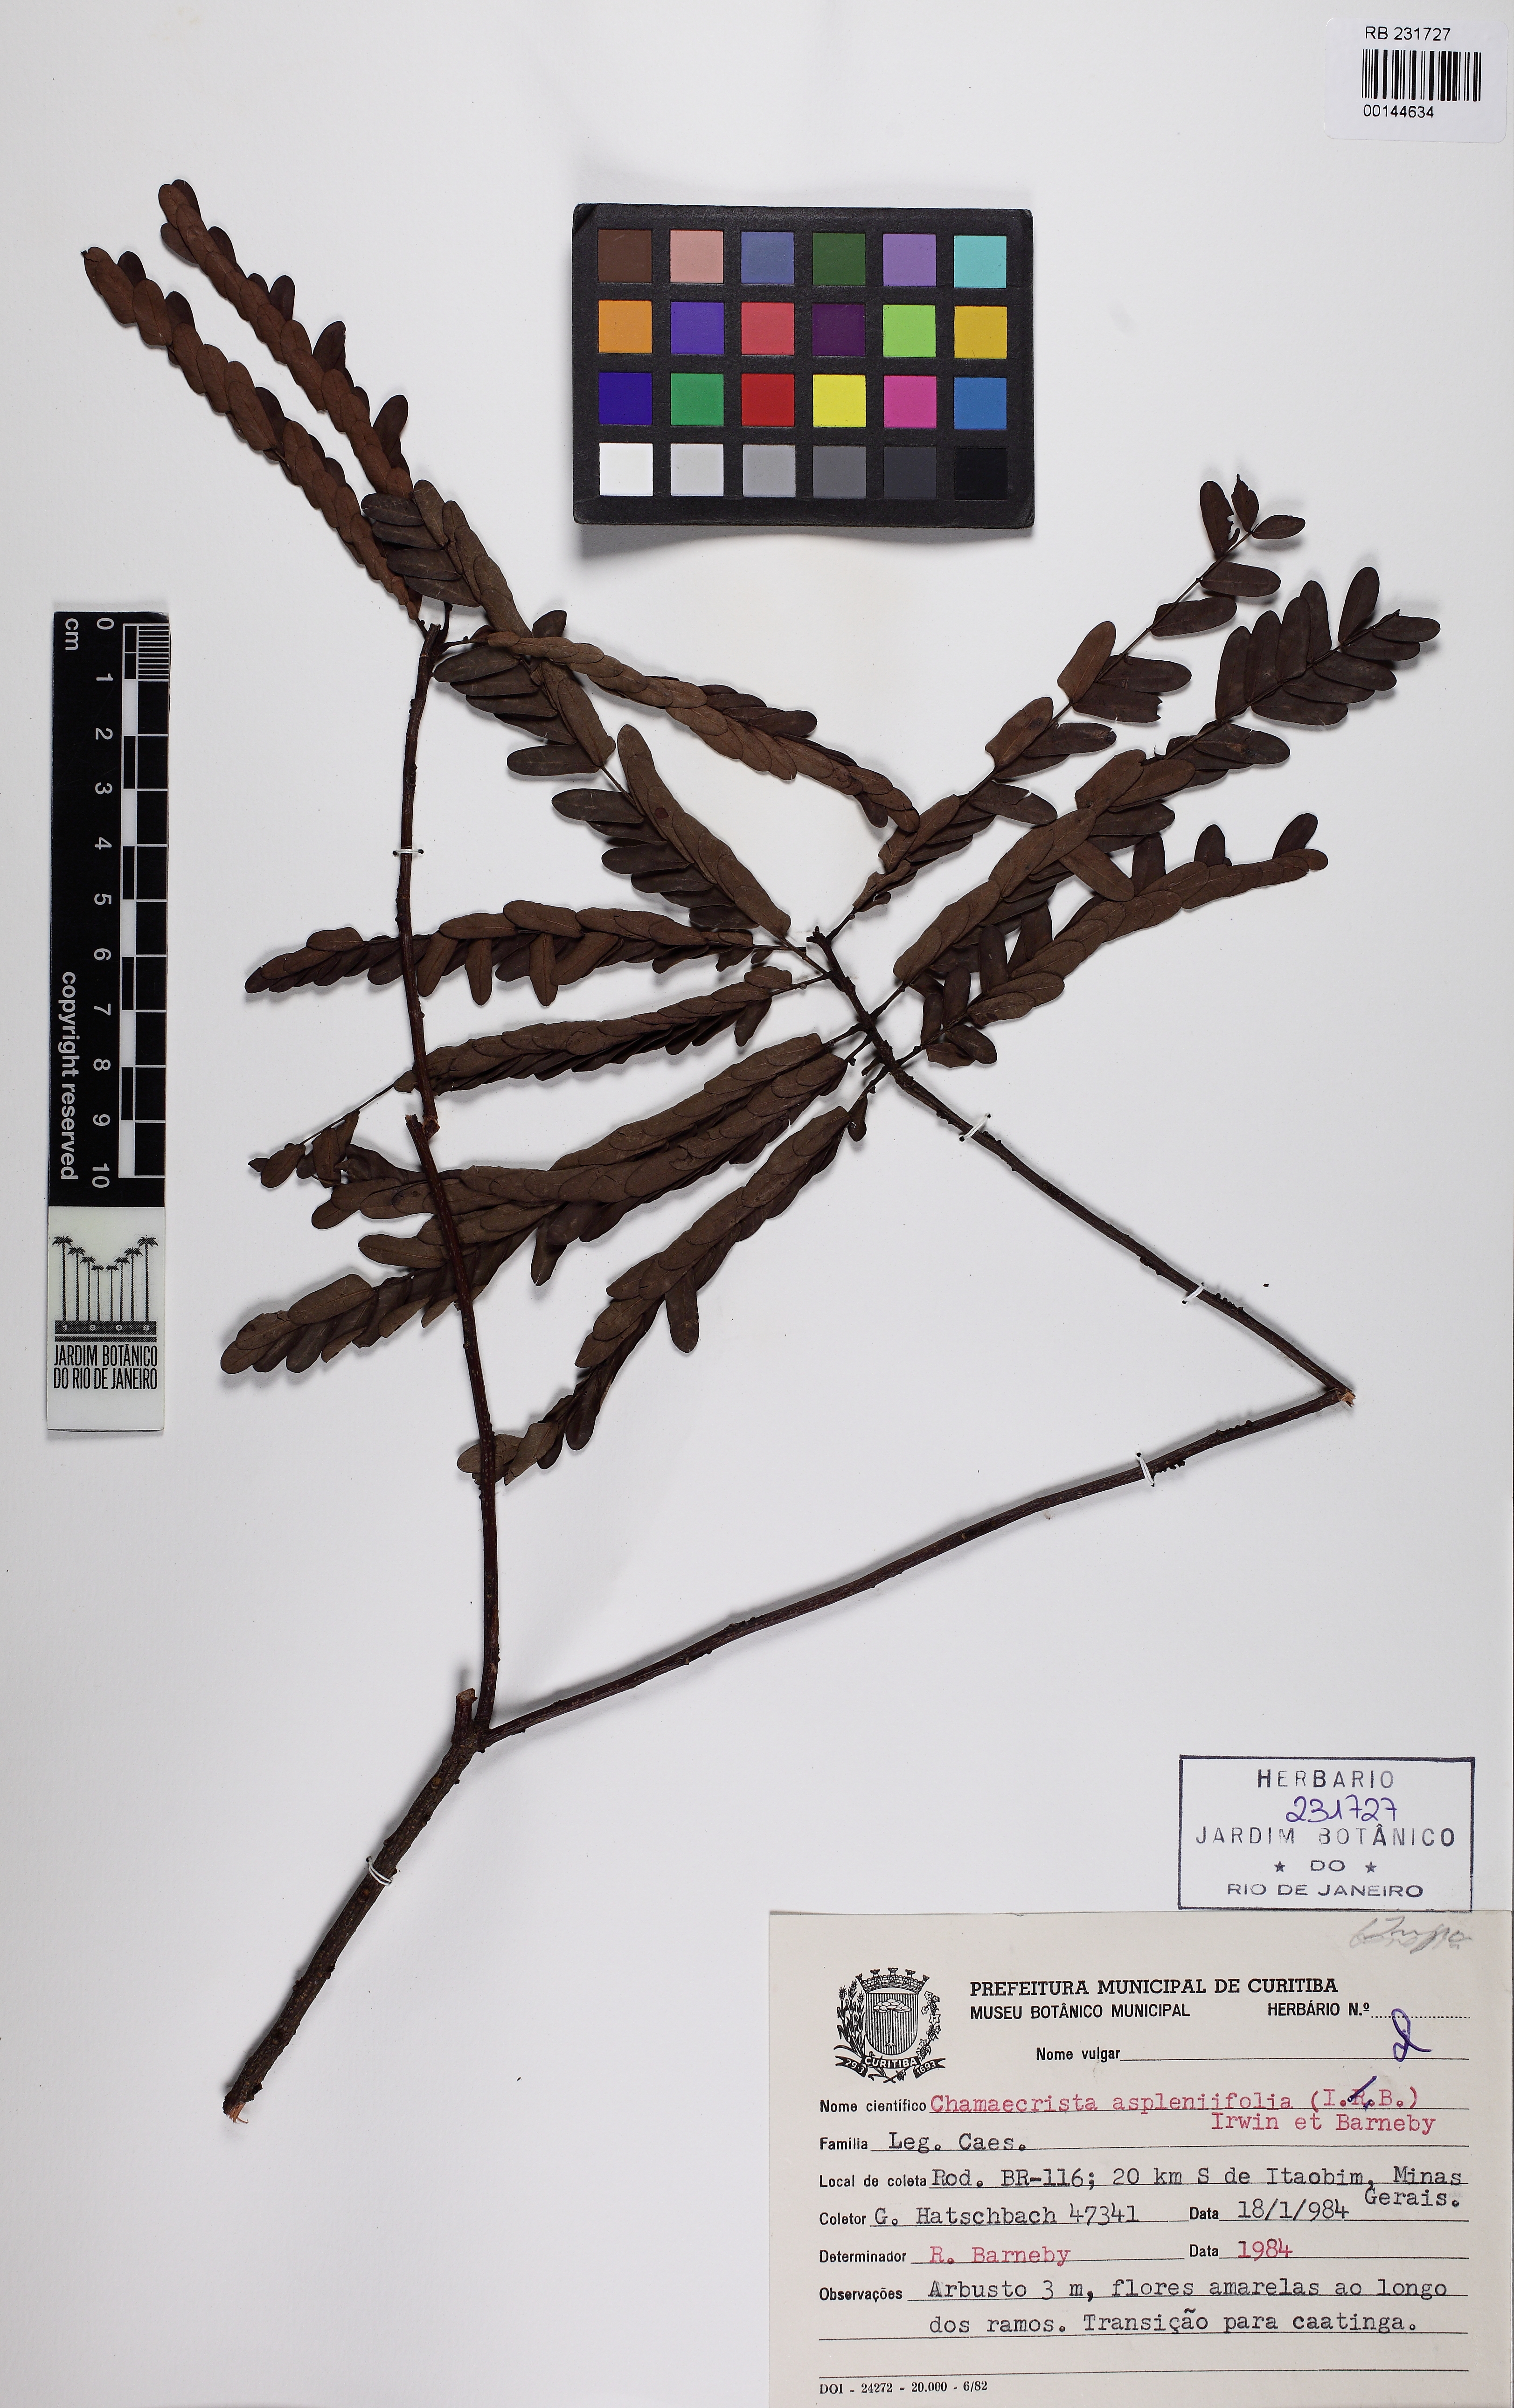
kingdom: Plantae
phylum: Tracheophyta
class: Magnoliopsida
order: Fabales
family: Fabaceae
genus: Chamaecrista
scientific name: Chamaecrista aspleniifolia
